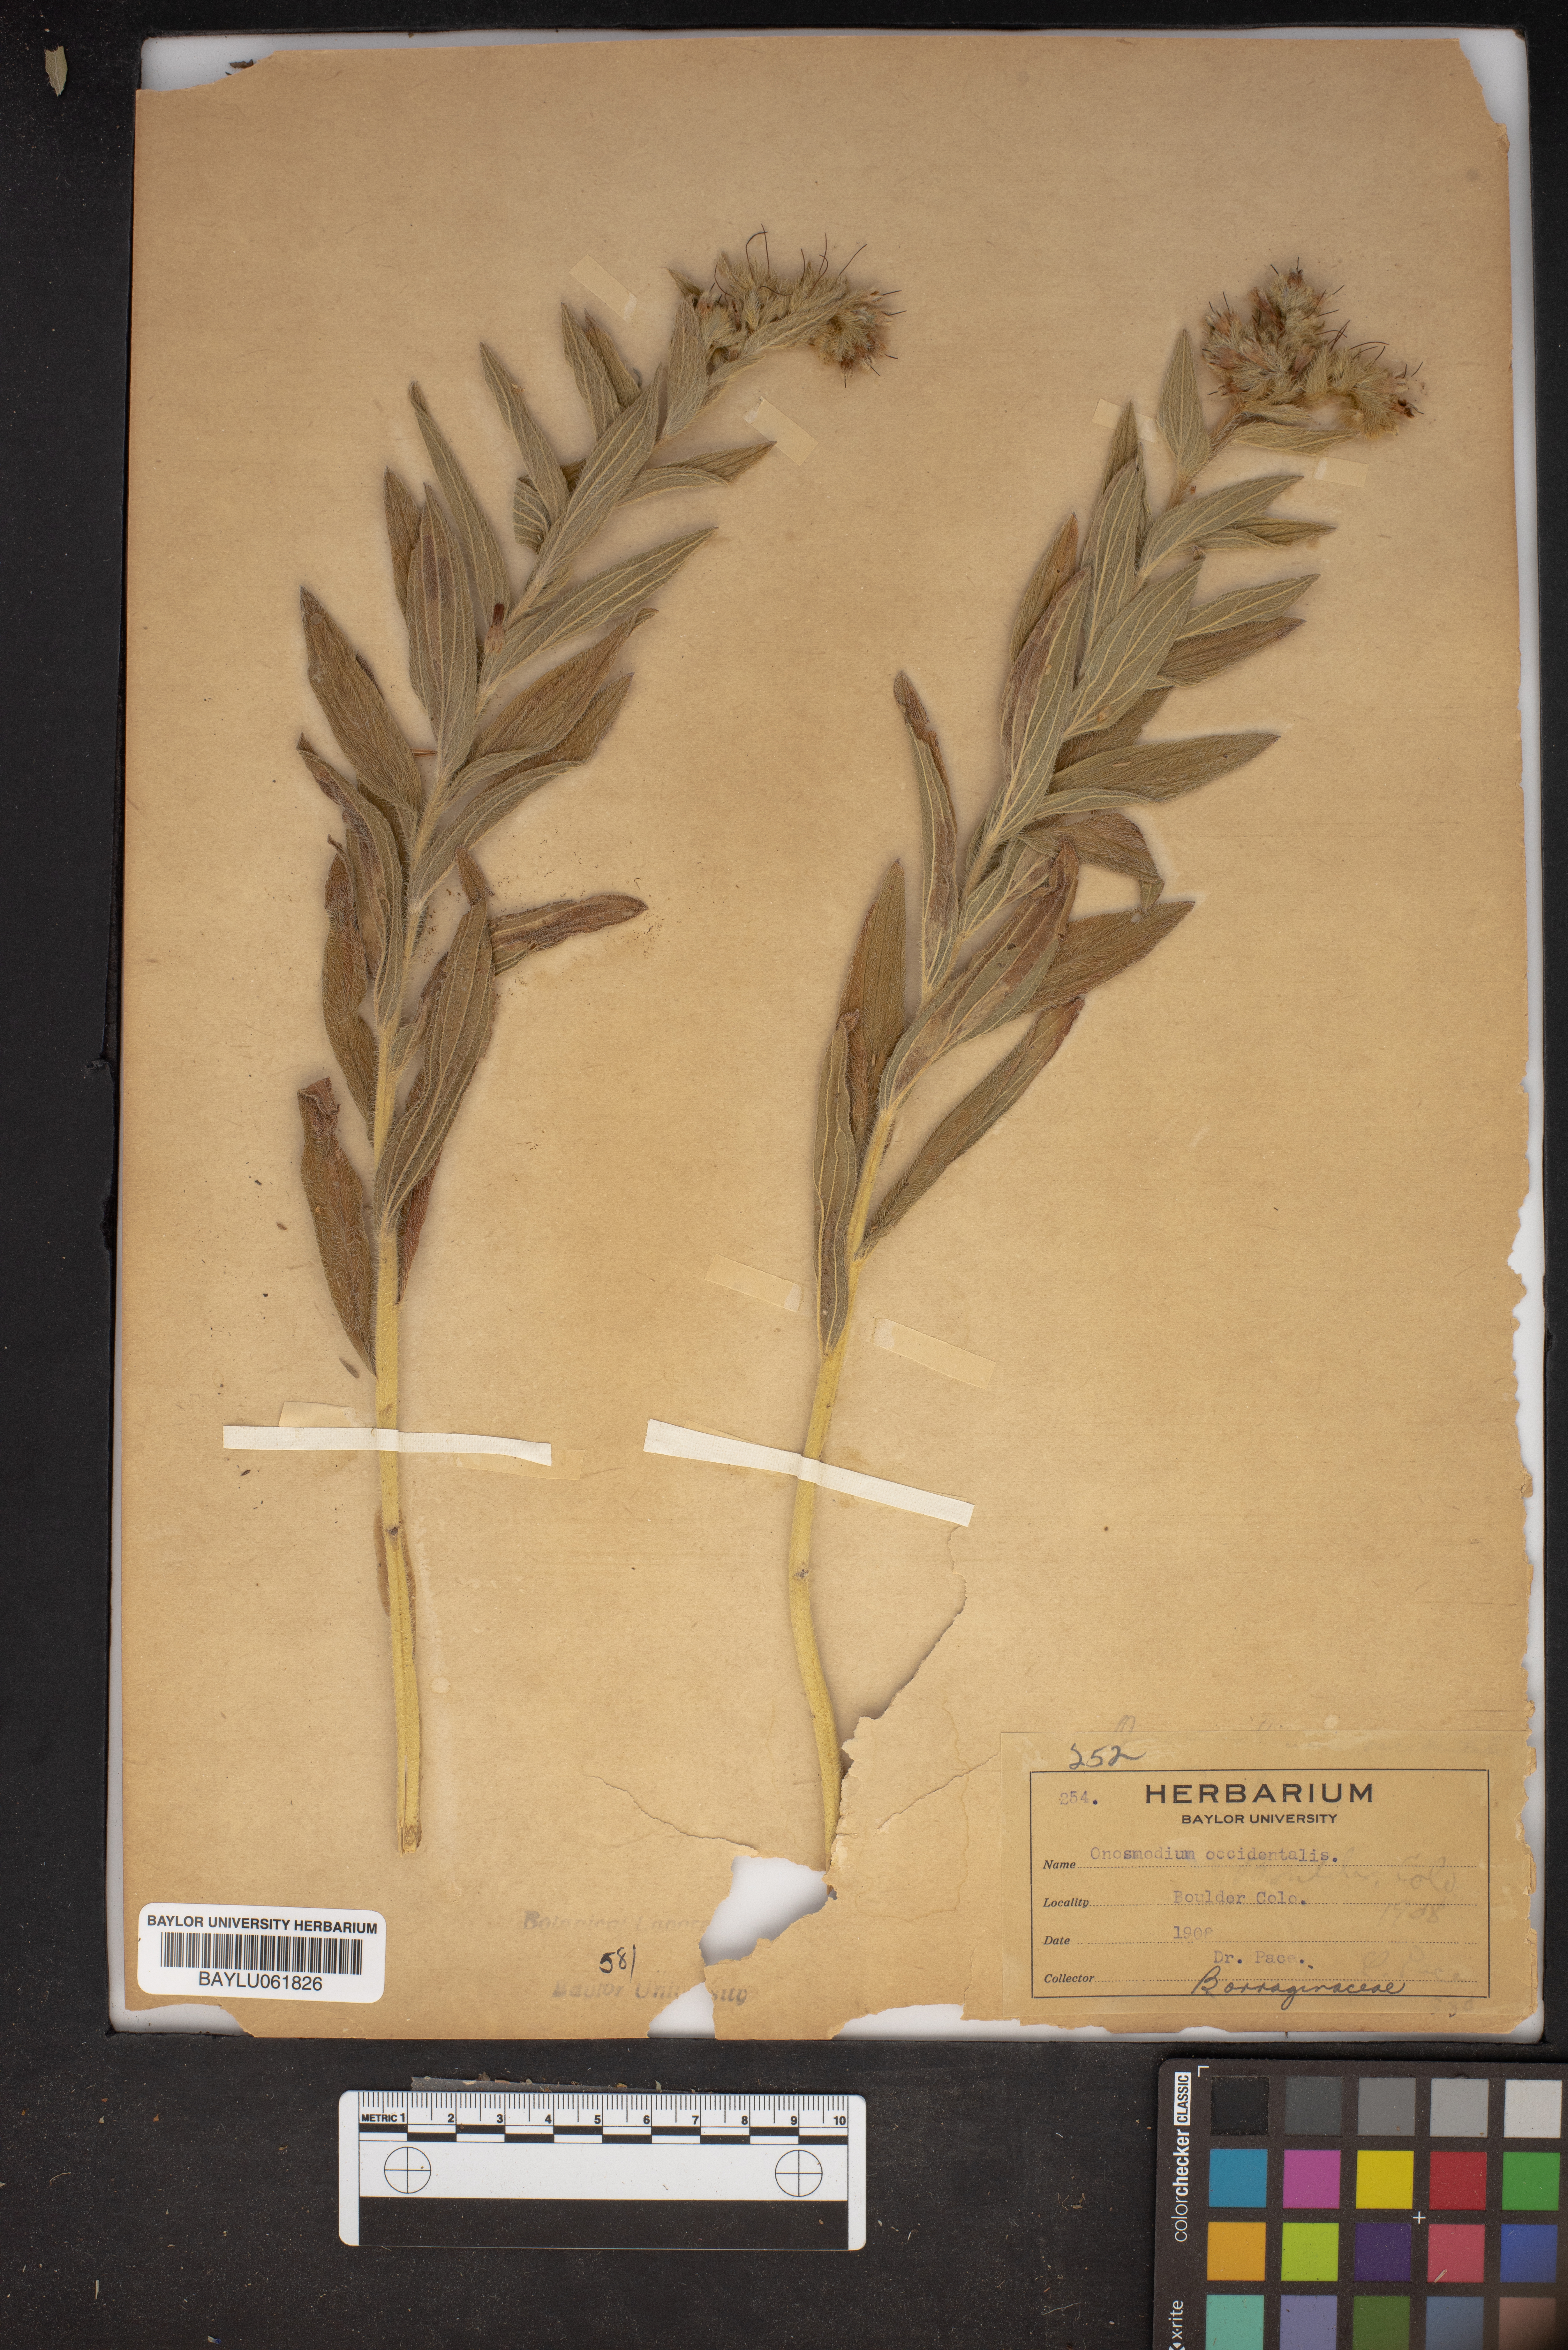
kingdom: Plantae
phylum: Tracheophyta
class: Magnoliopsida
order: Boraginales
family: Boraginaceae
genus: Lithospermum
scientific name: Lithospermum occidentale
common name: Western false gromwell
